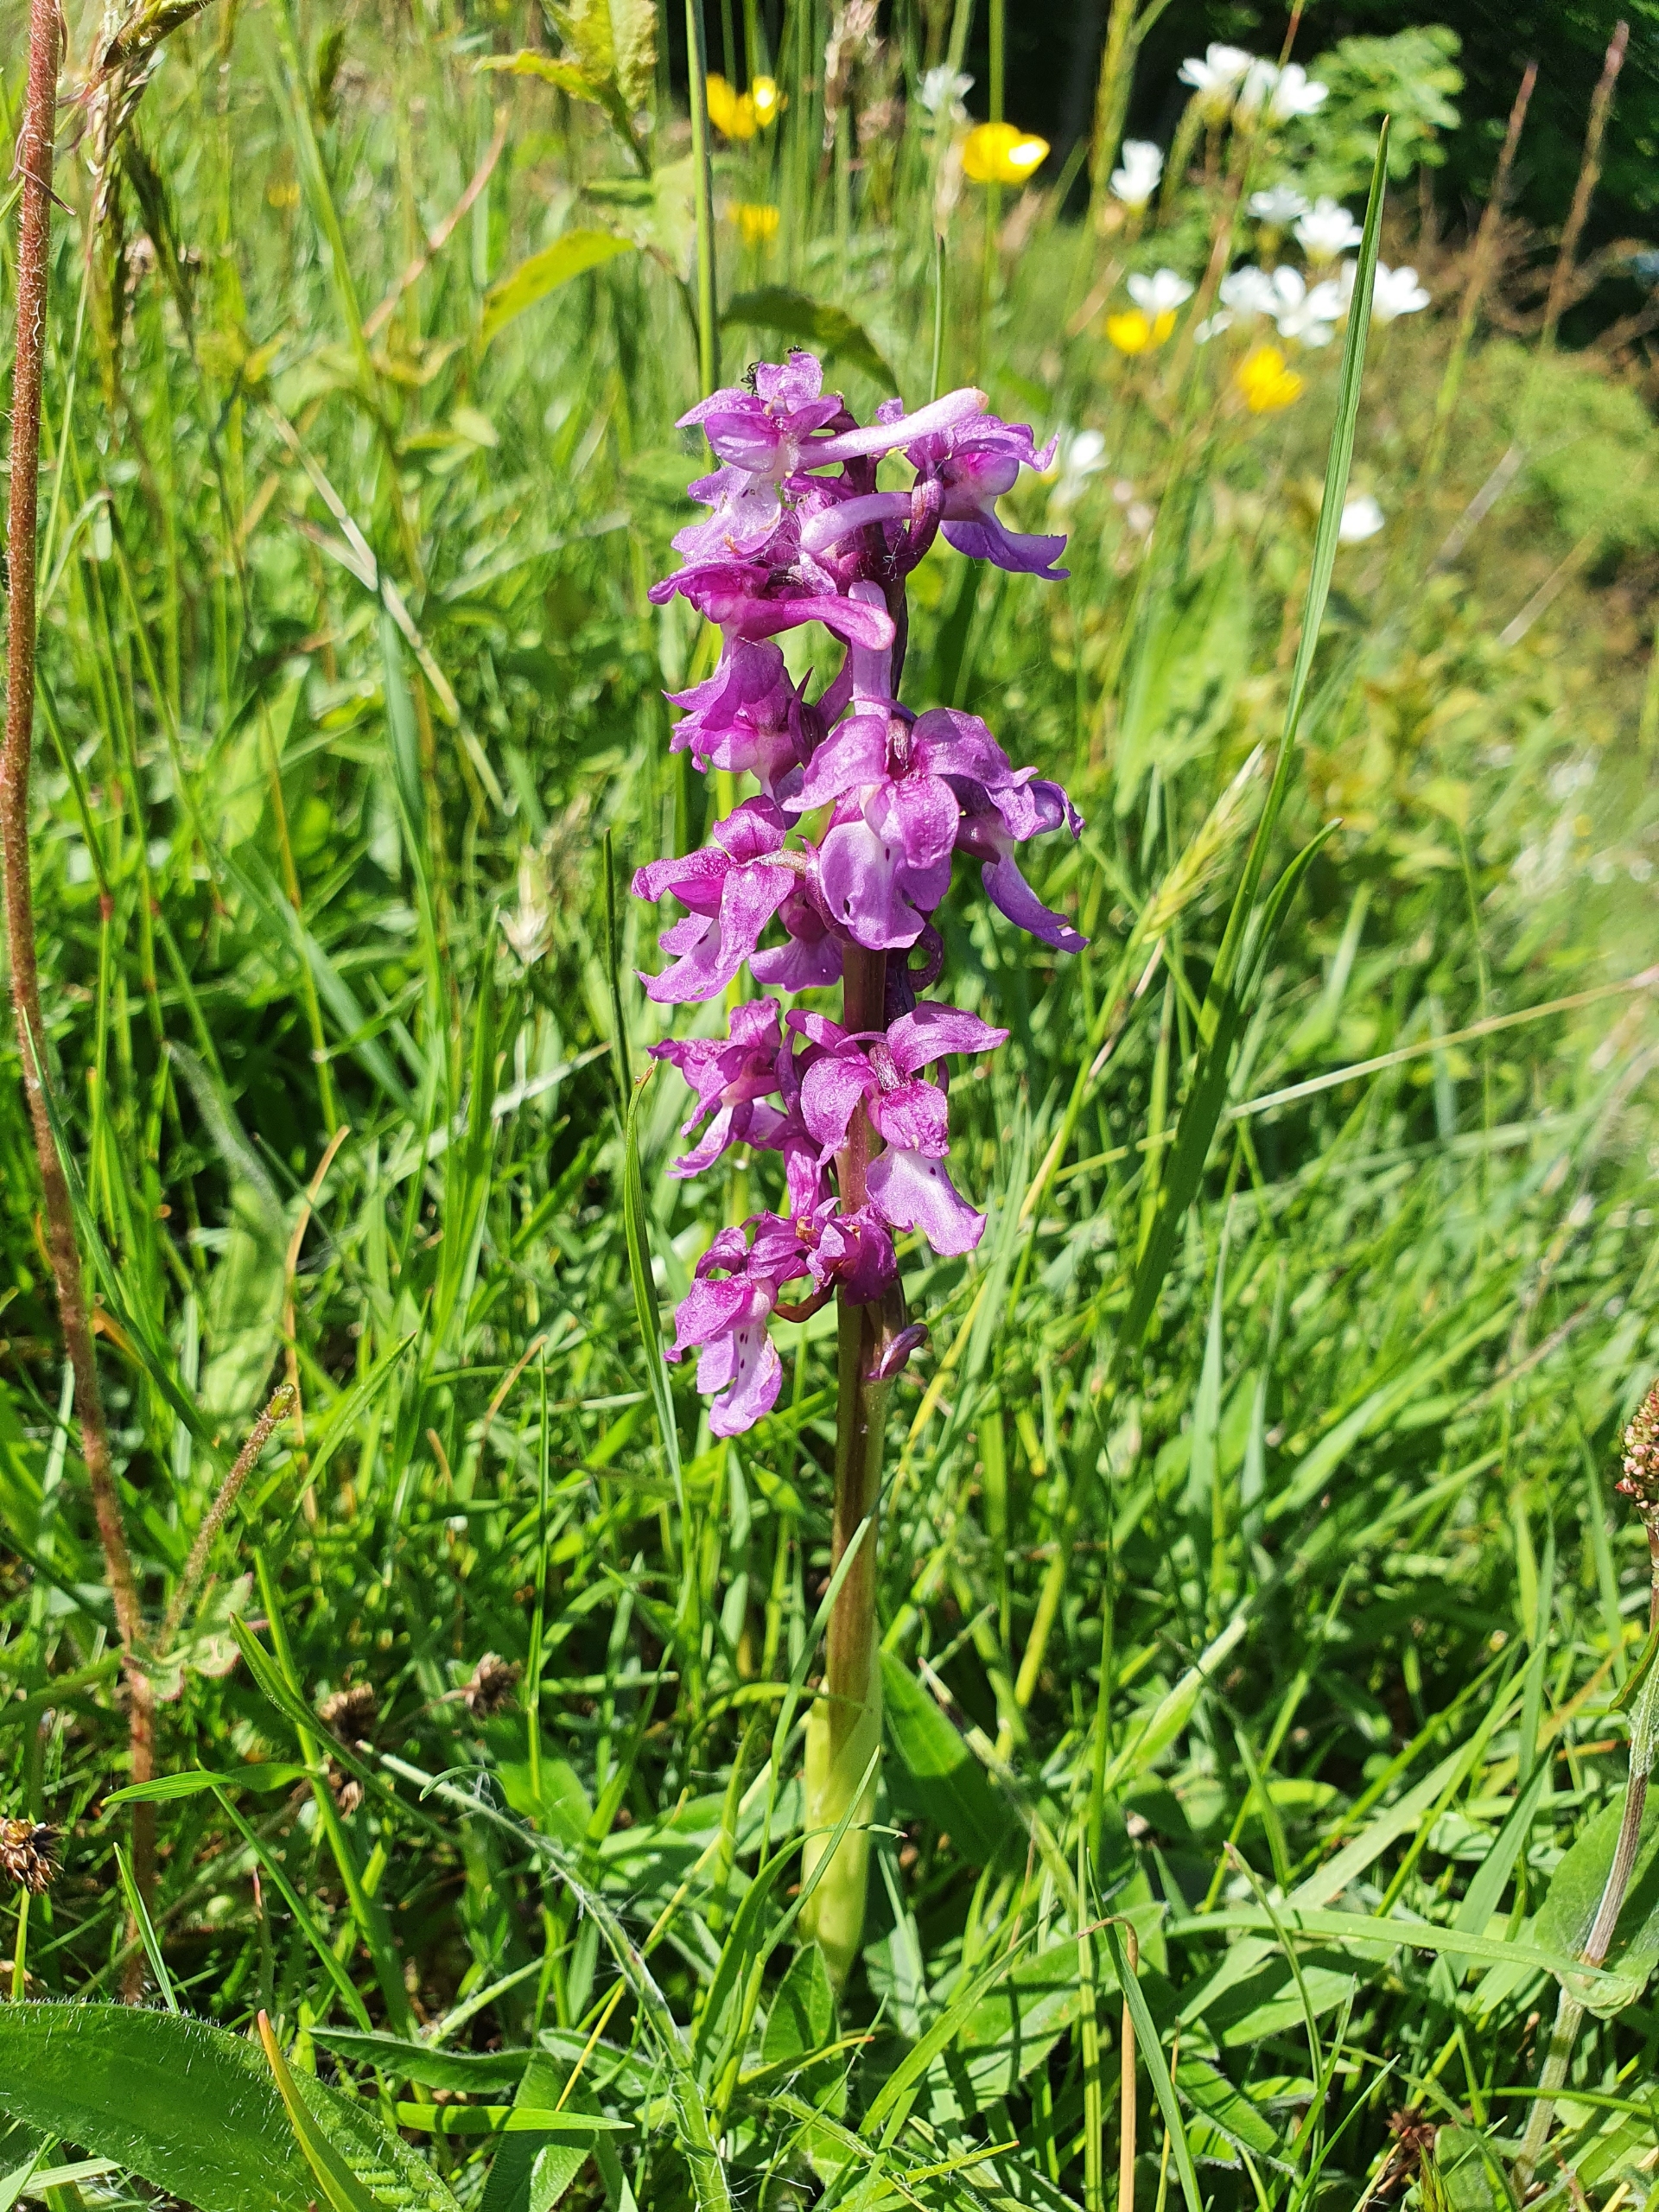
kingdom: Plantae
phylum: Tracheophyta
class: Liliopsida
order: Asparagales
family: Orchidaceae
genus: Orchis
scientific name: Orchis mascula
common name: Tyndakset gøgeurt
